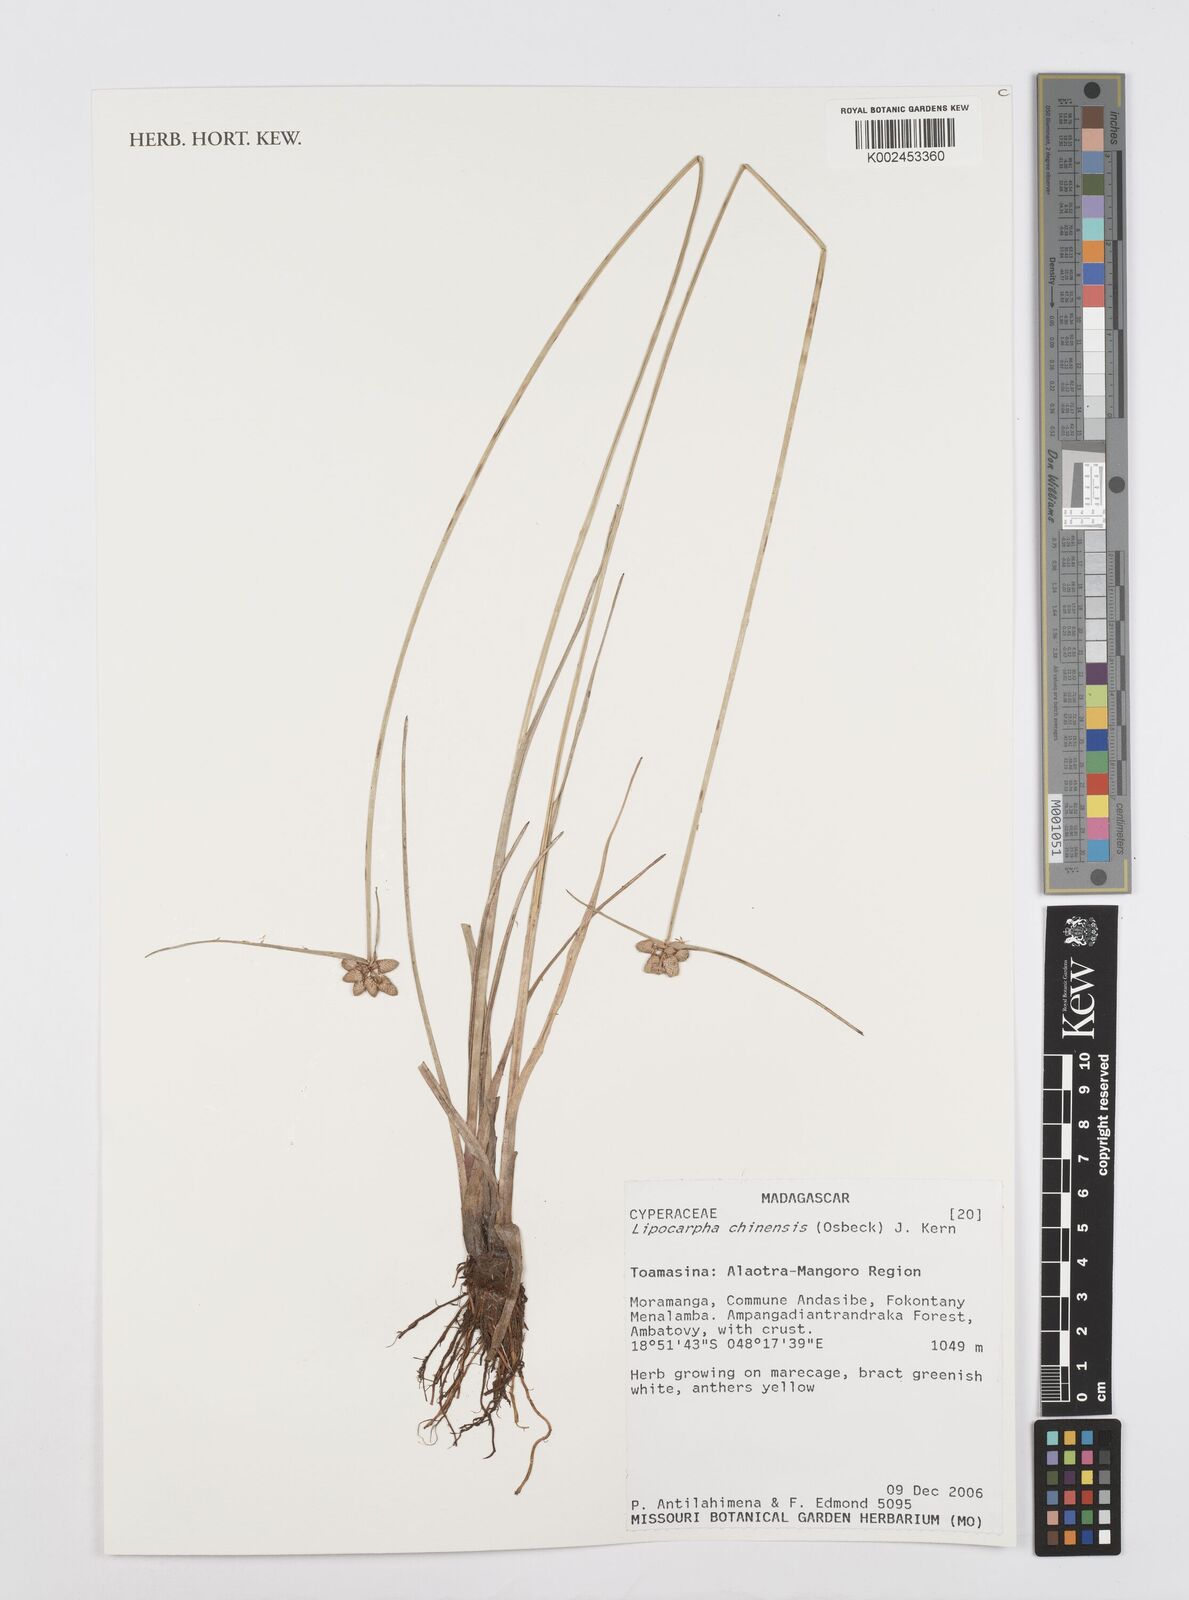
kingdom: Plantae
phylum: Tracheophyta
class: Liliopsida
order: Poales
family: Cyperaceae
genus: Cyperus
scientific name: Cyperus
